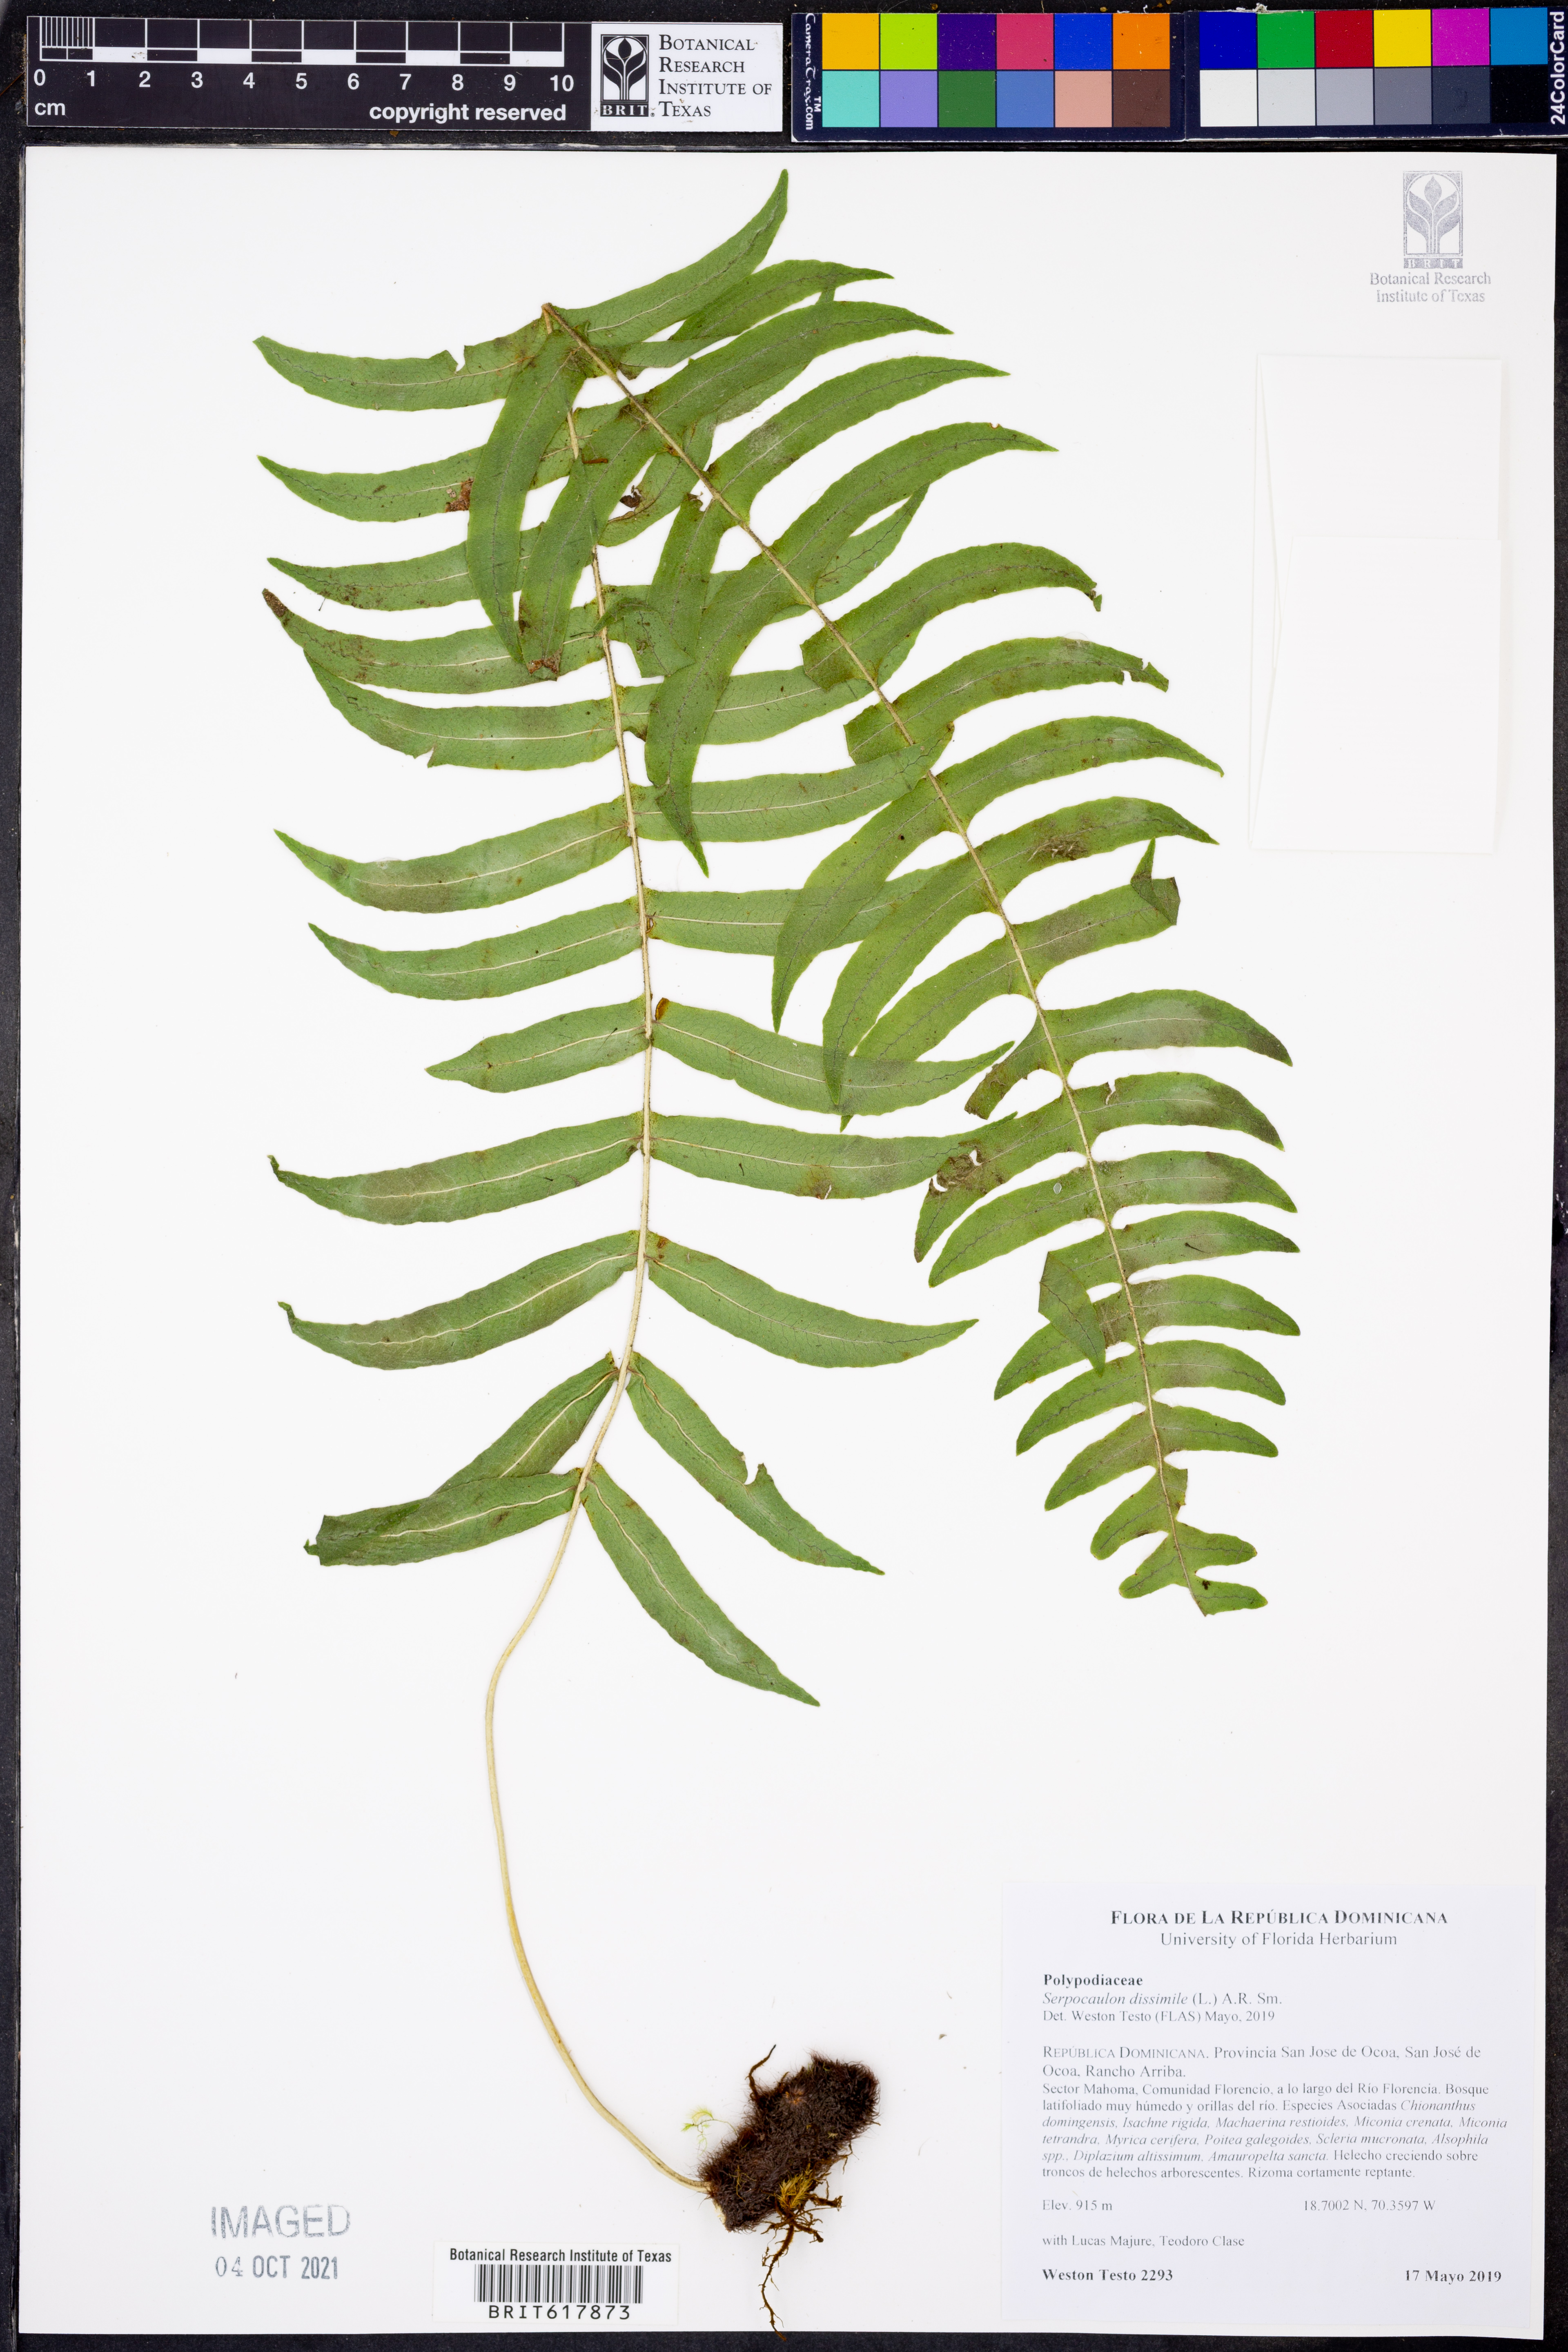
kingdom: Plantae
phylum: Tracheophyta
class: Polypodiopsida
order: Polypodiales
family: Polypodiaceae
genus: Serpocaulon
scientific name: Serpocaulon dissimile
